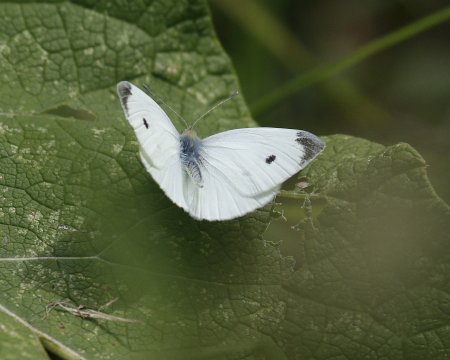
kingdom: Animalia
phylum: Arthropoda
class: Insecta
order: Lepidoptera
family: Pieridae
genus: Pieris
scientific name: Pieris rapae
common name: Cabbage White
